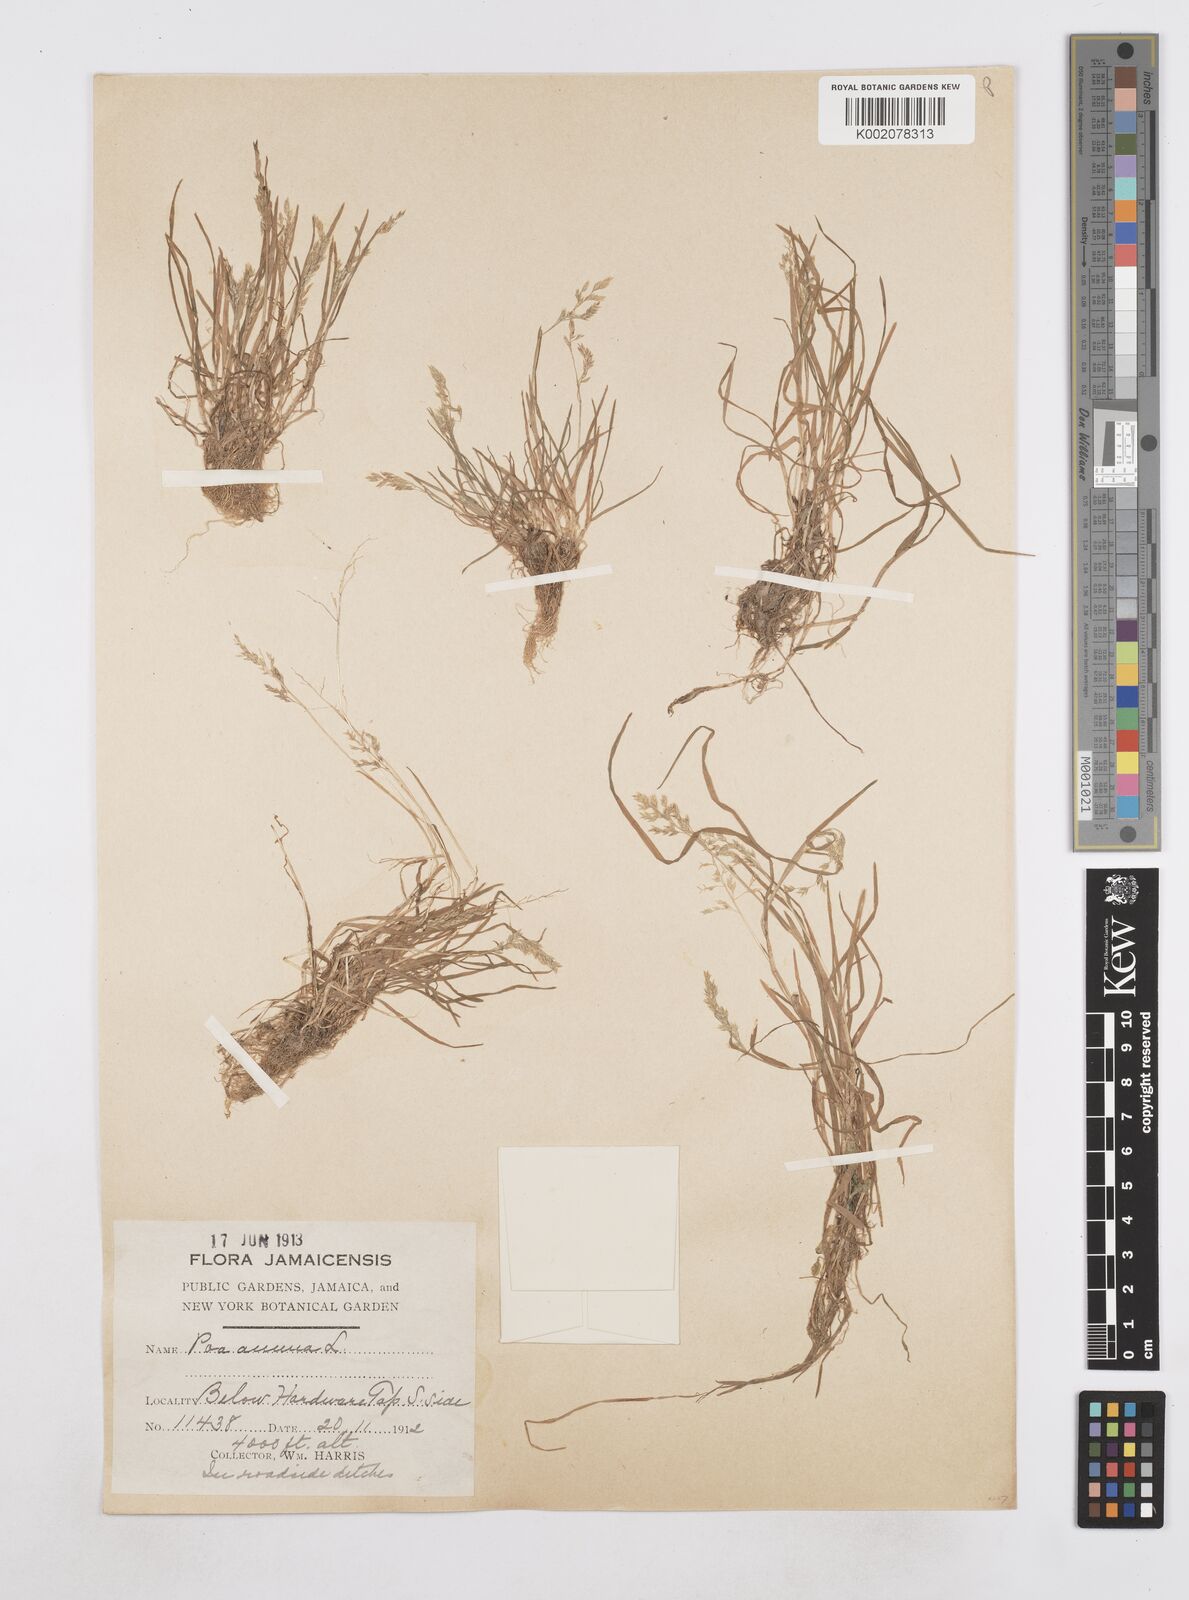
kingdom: Plantae
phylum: Tracheophyta
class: Liliopsida
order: Poales
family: Poaceae
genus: Poa
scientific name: Poa annua
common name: Annual bluegrass
